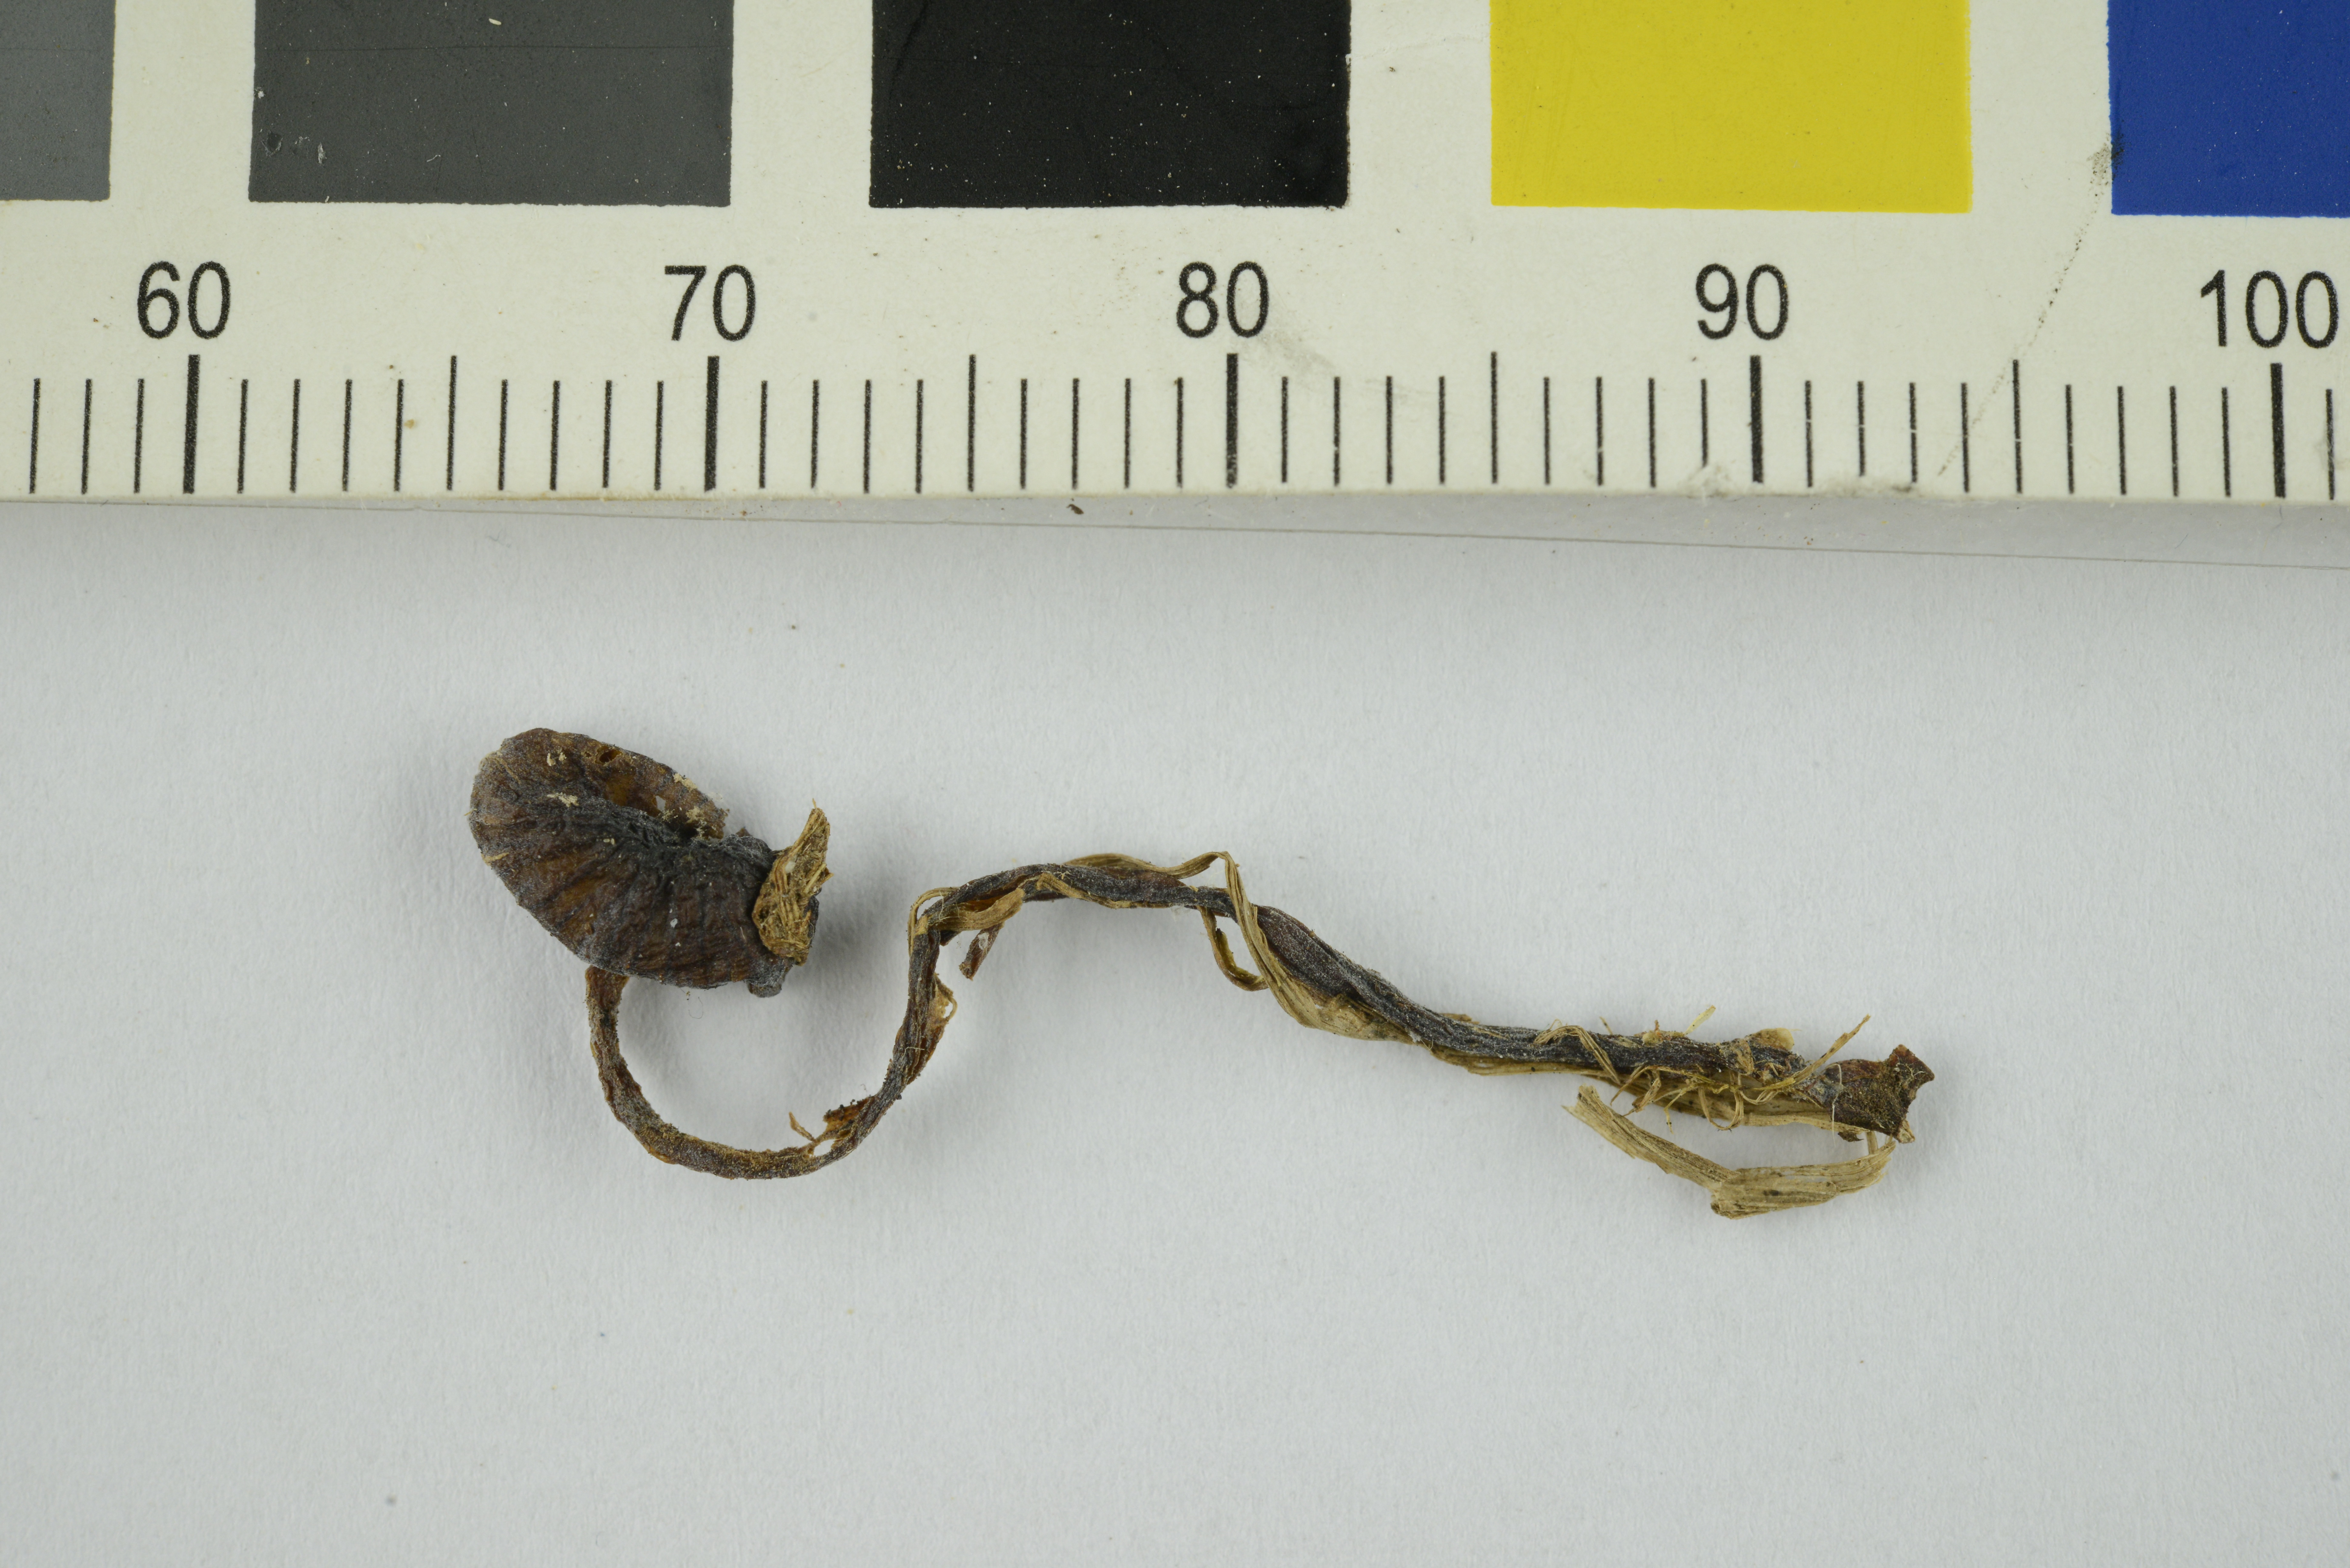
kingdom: Fungi
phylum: Basidiomycota
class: Agaricomycetes
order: Agaricales
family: Entolomataceae
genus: Entoloma
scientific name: Entoloma
